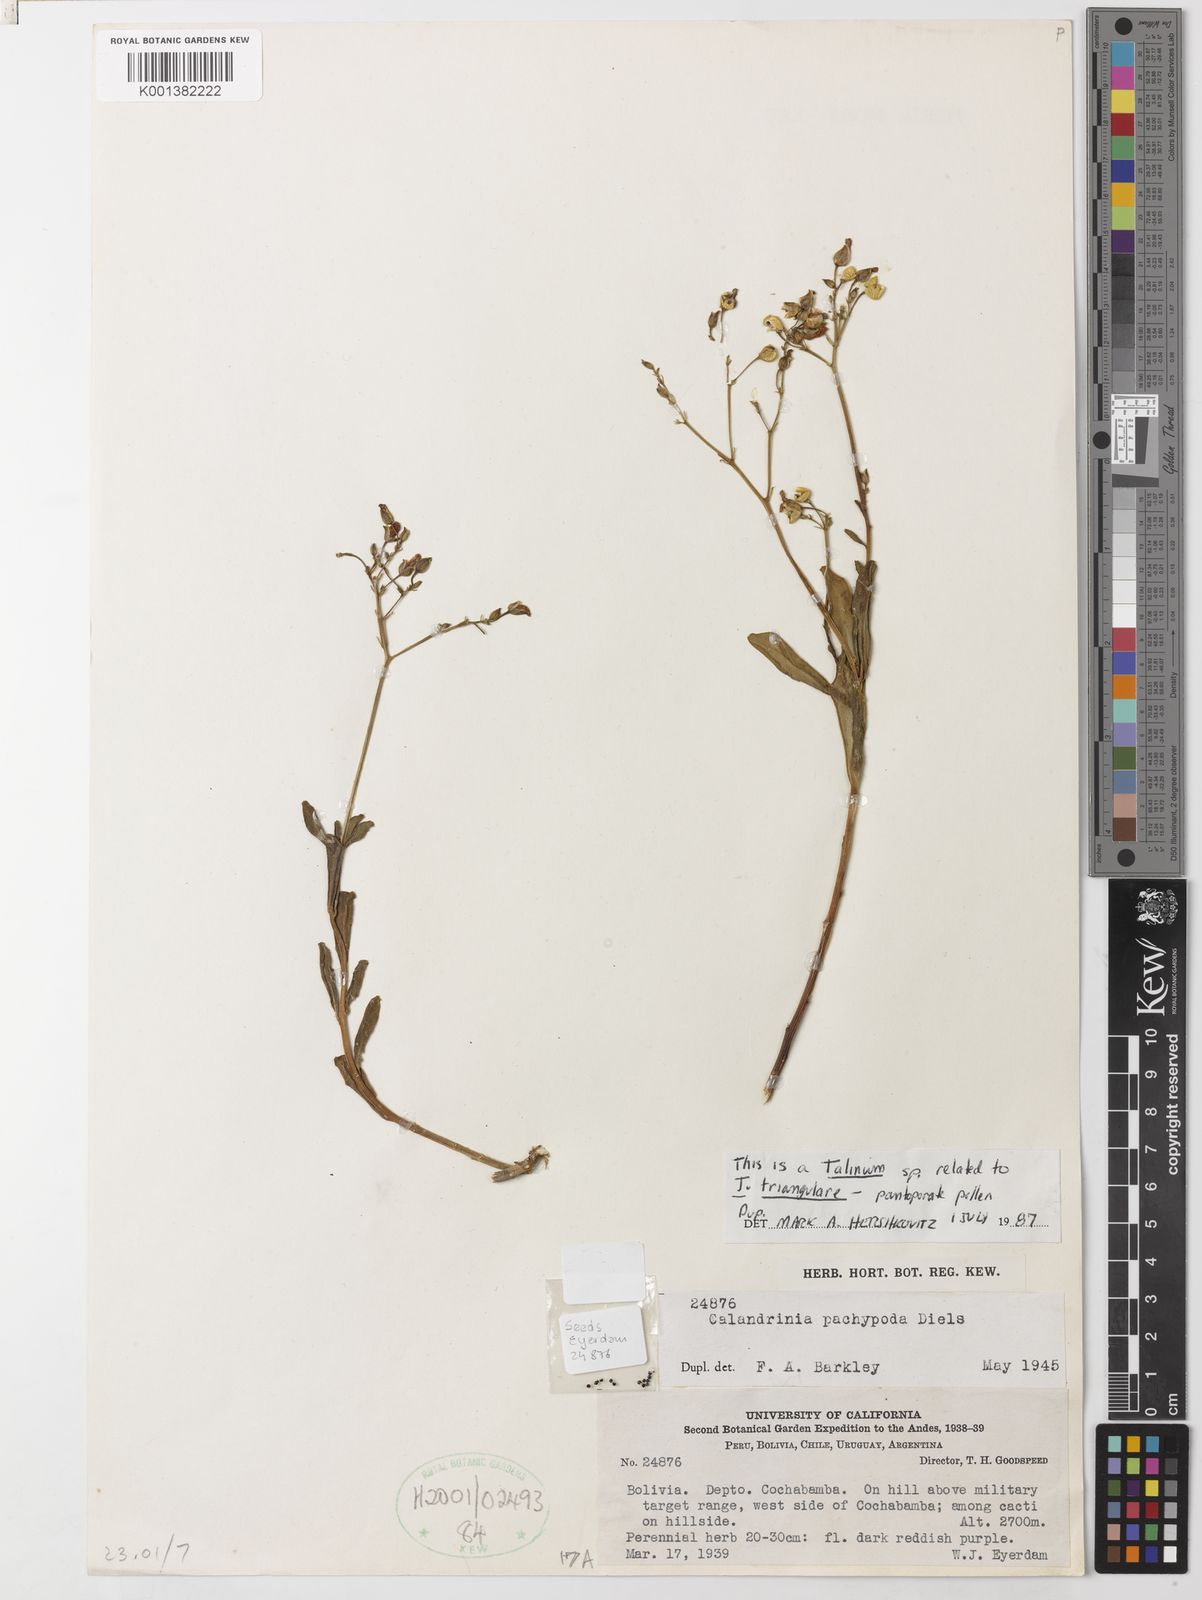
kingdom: Plantae
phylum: Tracheophyta
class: Magnoliopsida
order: Caryophyllales
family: Talinaceae
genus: Talinum
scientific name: Talinum fruticosum
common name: Verdolaga-francesa
